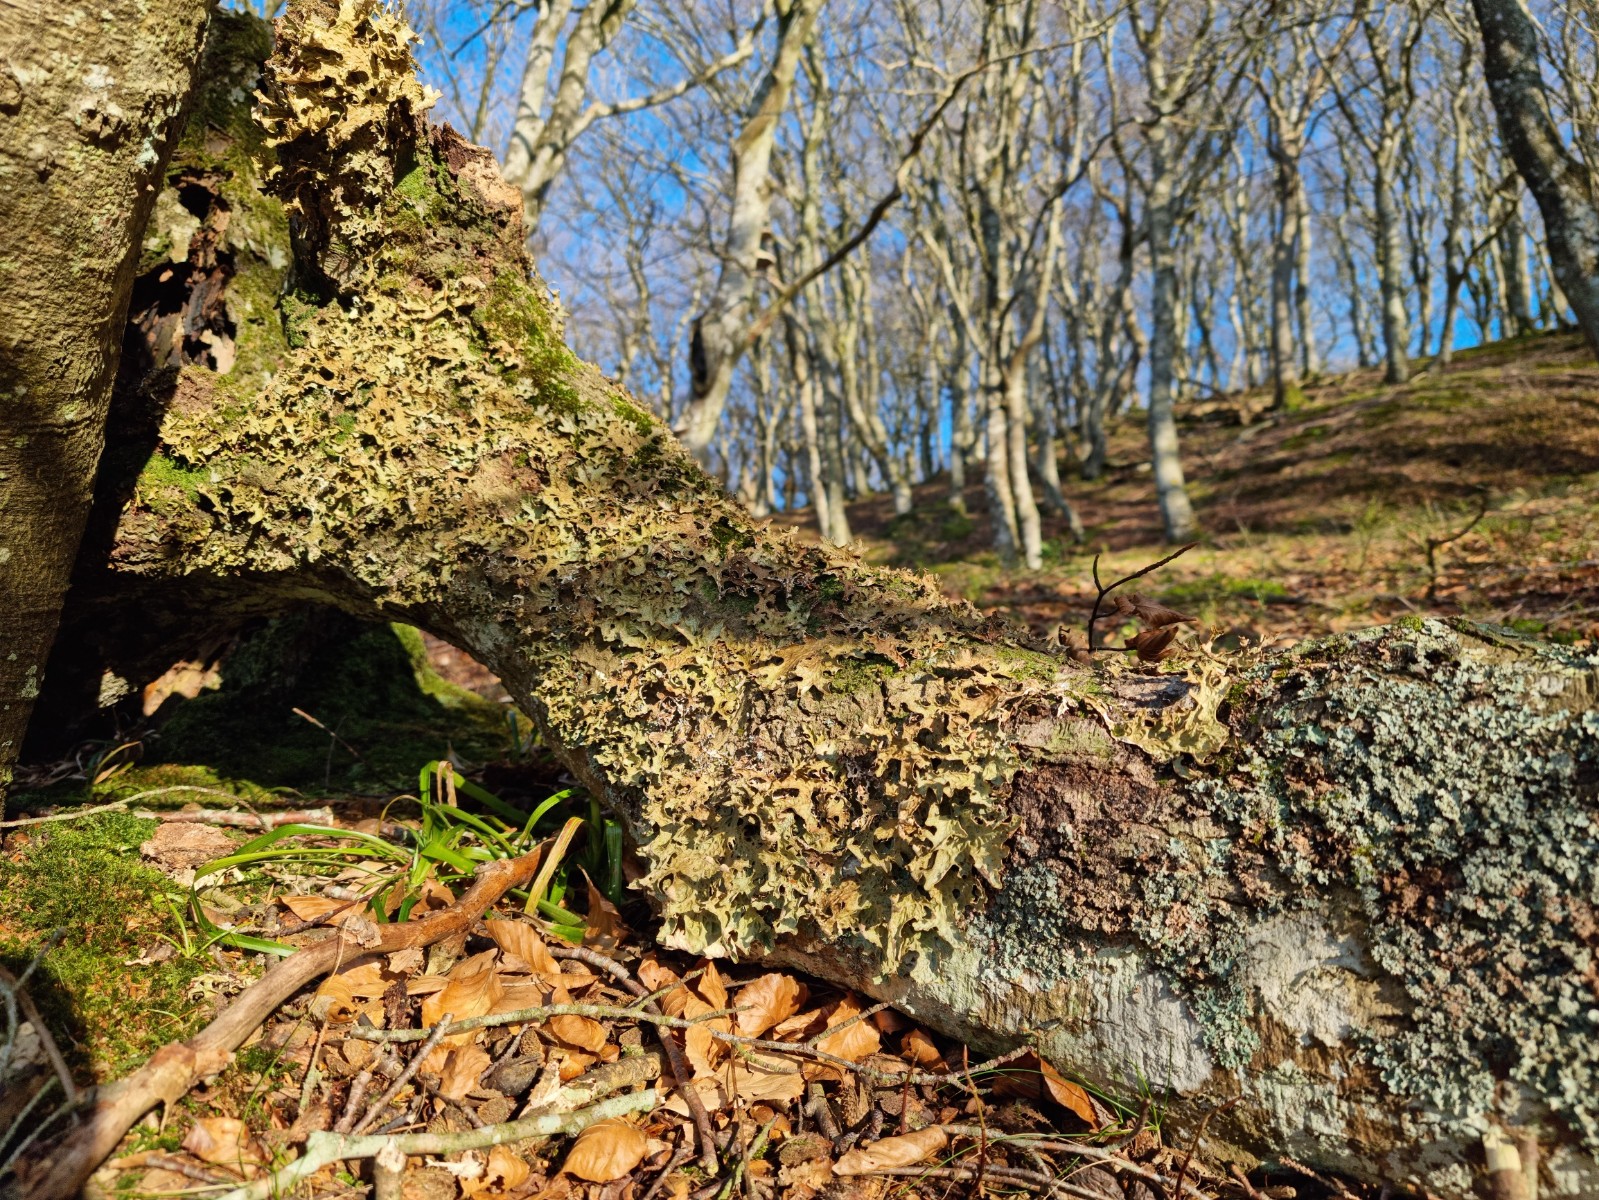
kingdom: Fungi
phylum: Ascomycota
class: Lecanoromycetes
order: Peltigerales
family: Lobariaceae
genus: Lobaria
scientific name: Lobaria pulmonaria
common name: almindelig lungelav
